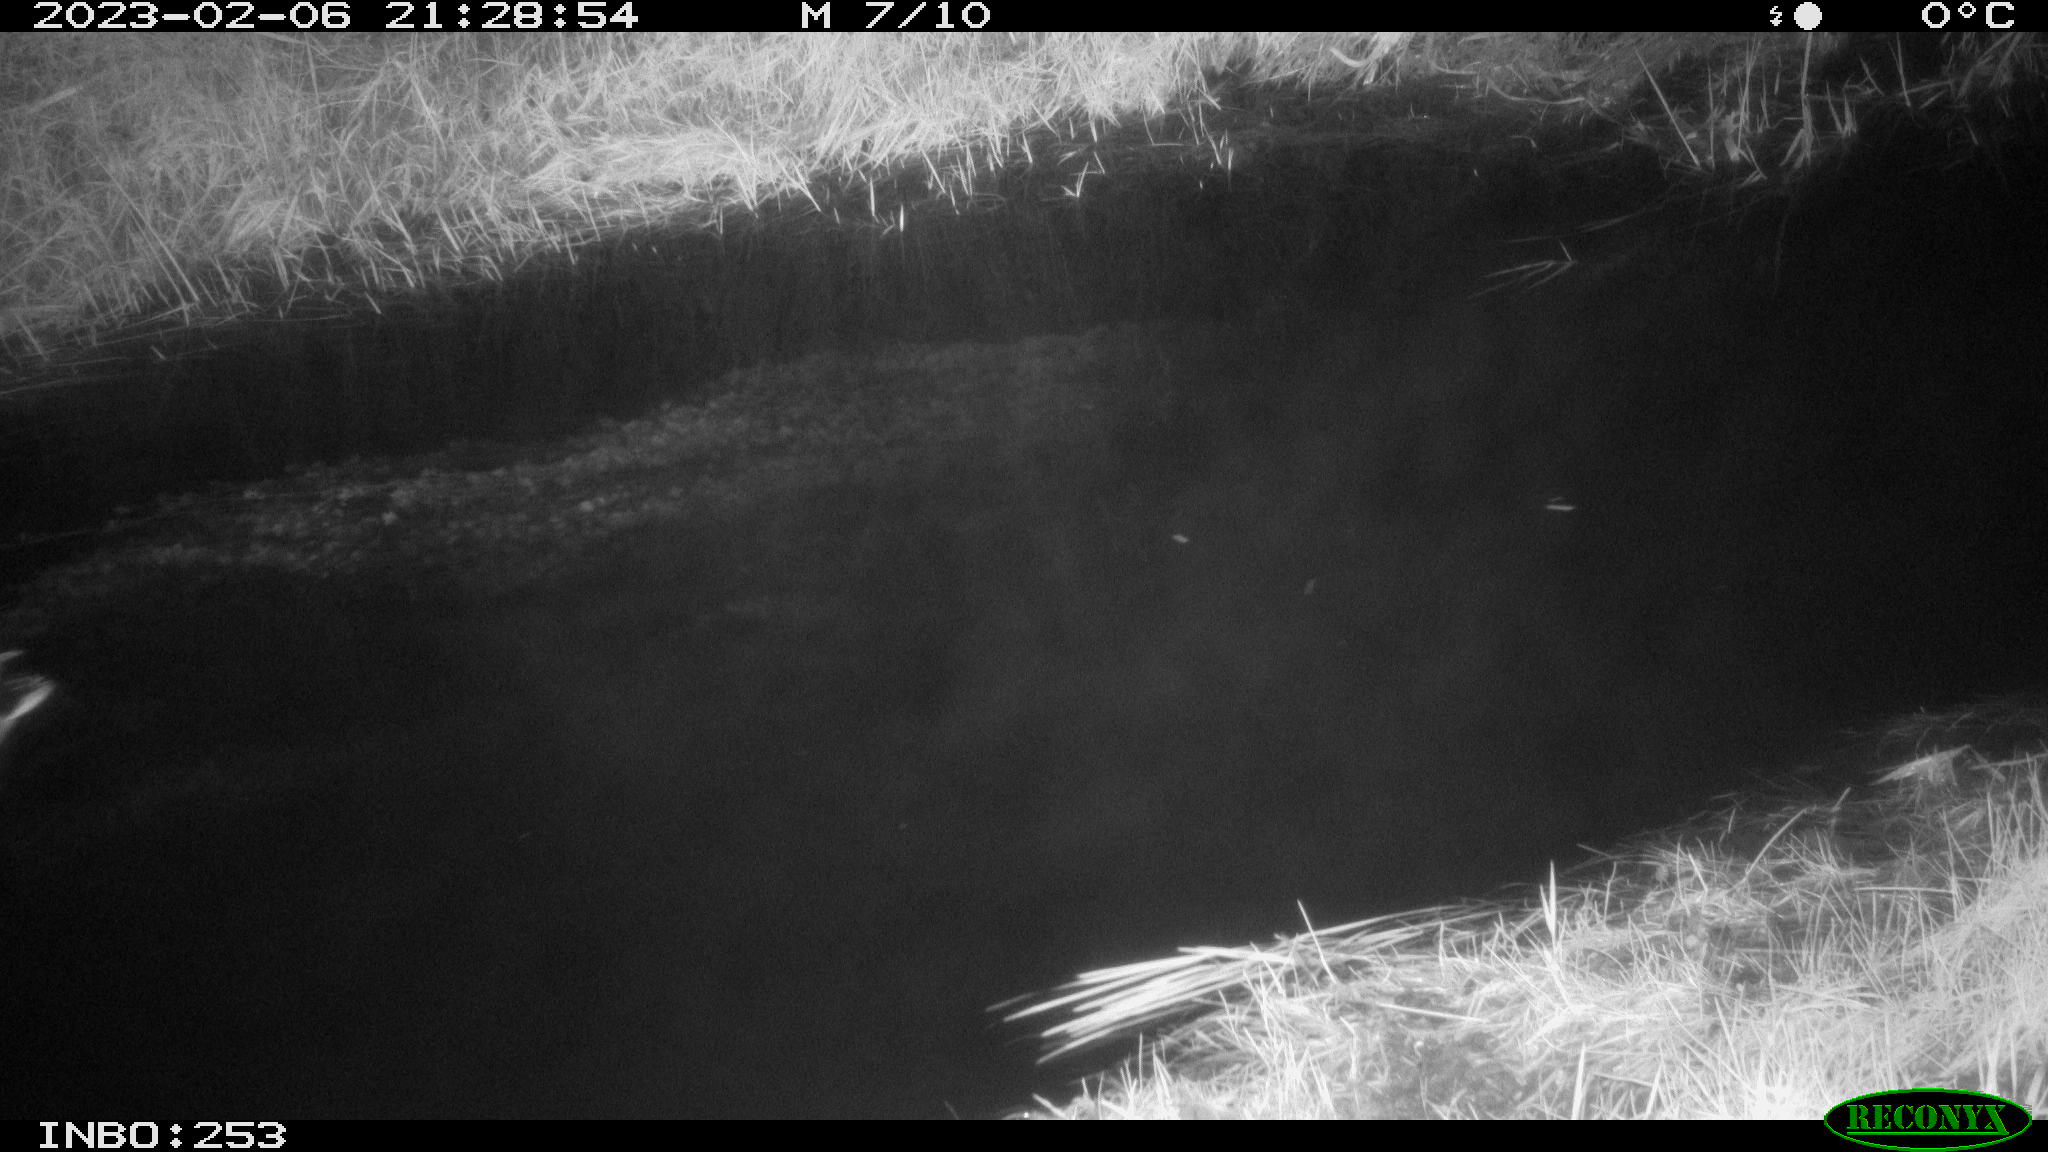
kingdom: Animalia
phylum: Chordata
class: Aves
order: Anseriformes
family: Anatidae
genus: Anas
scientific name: Anas
